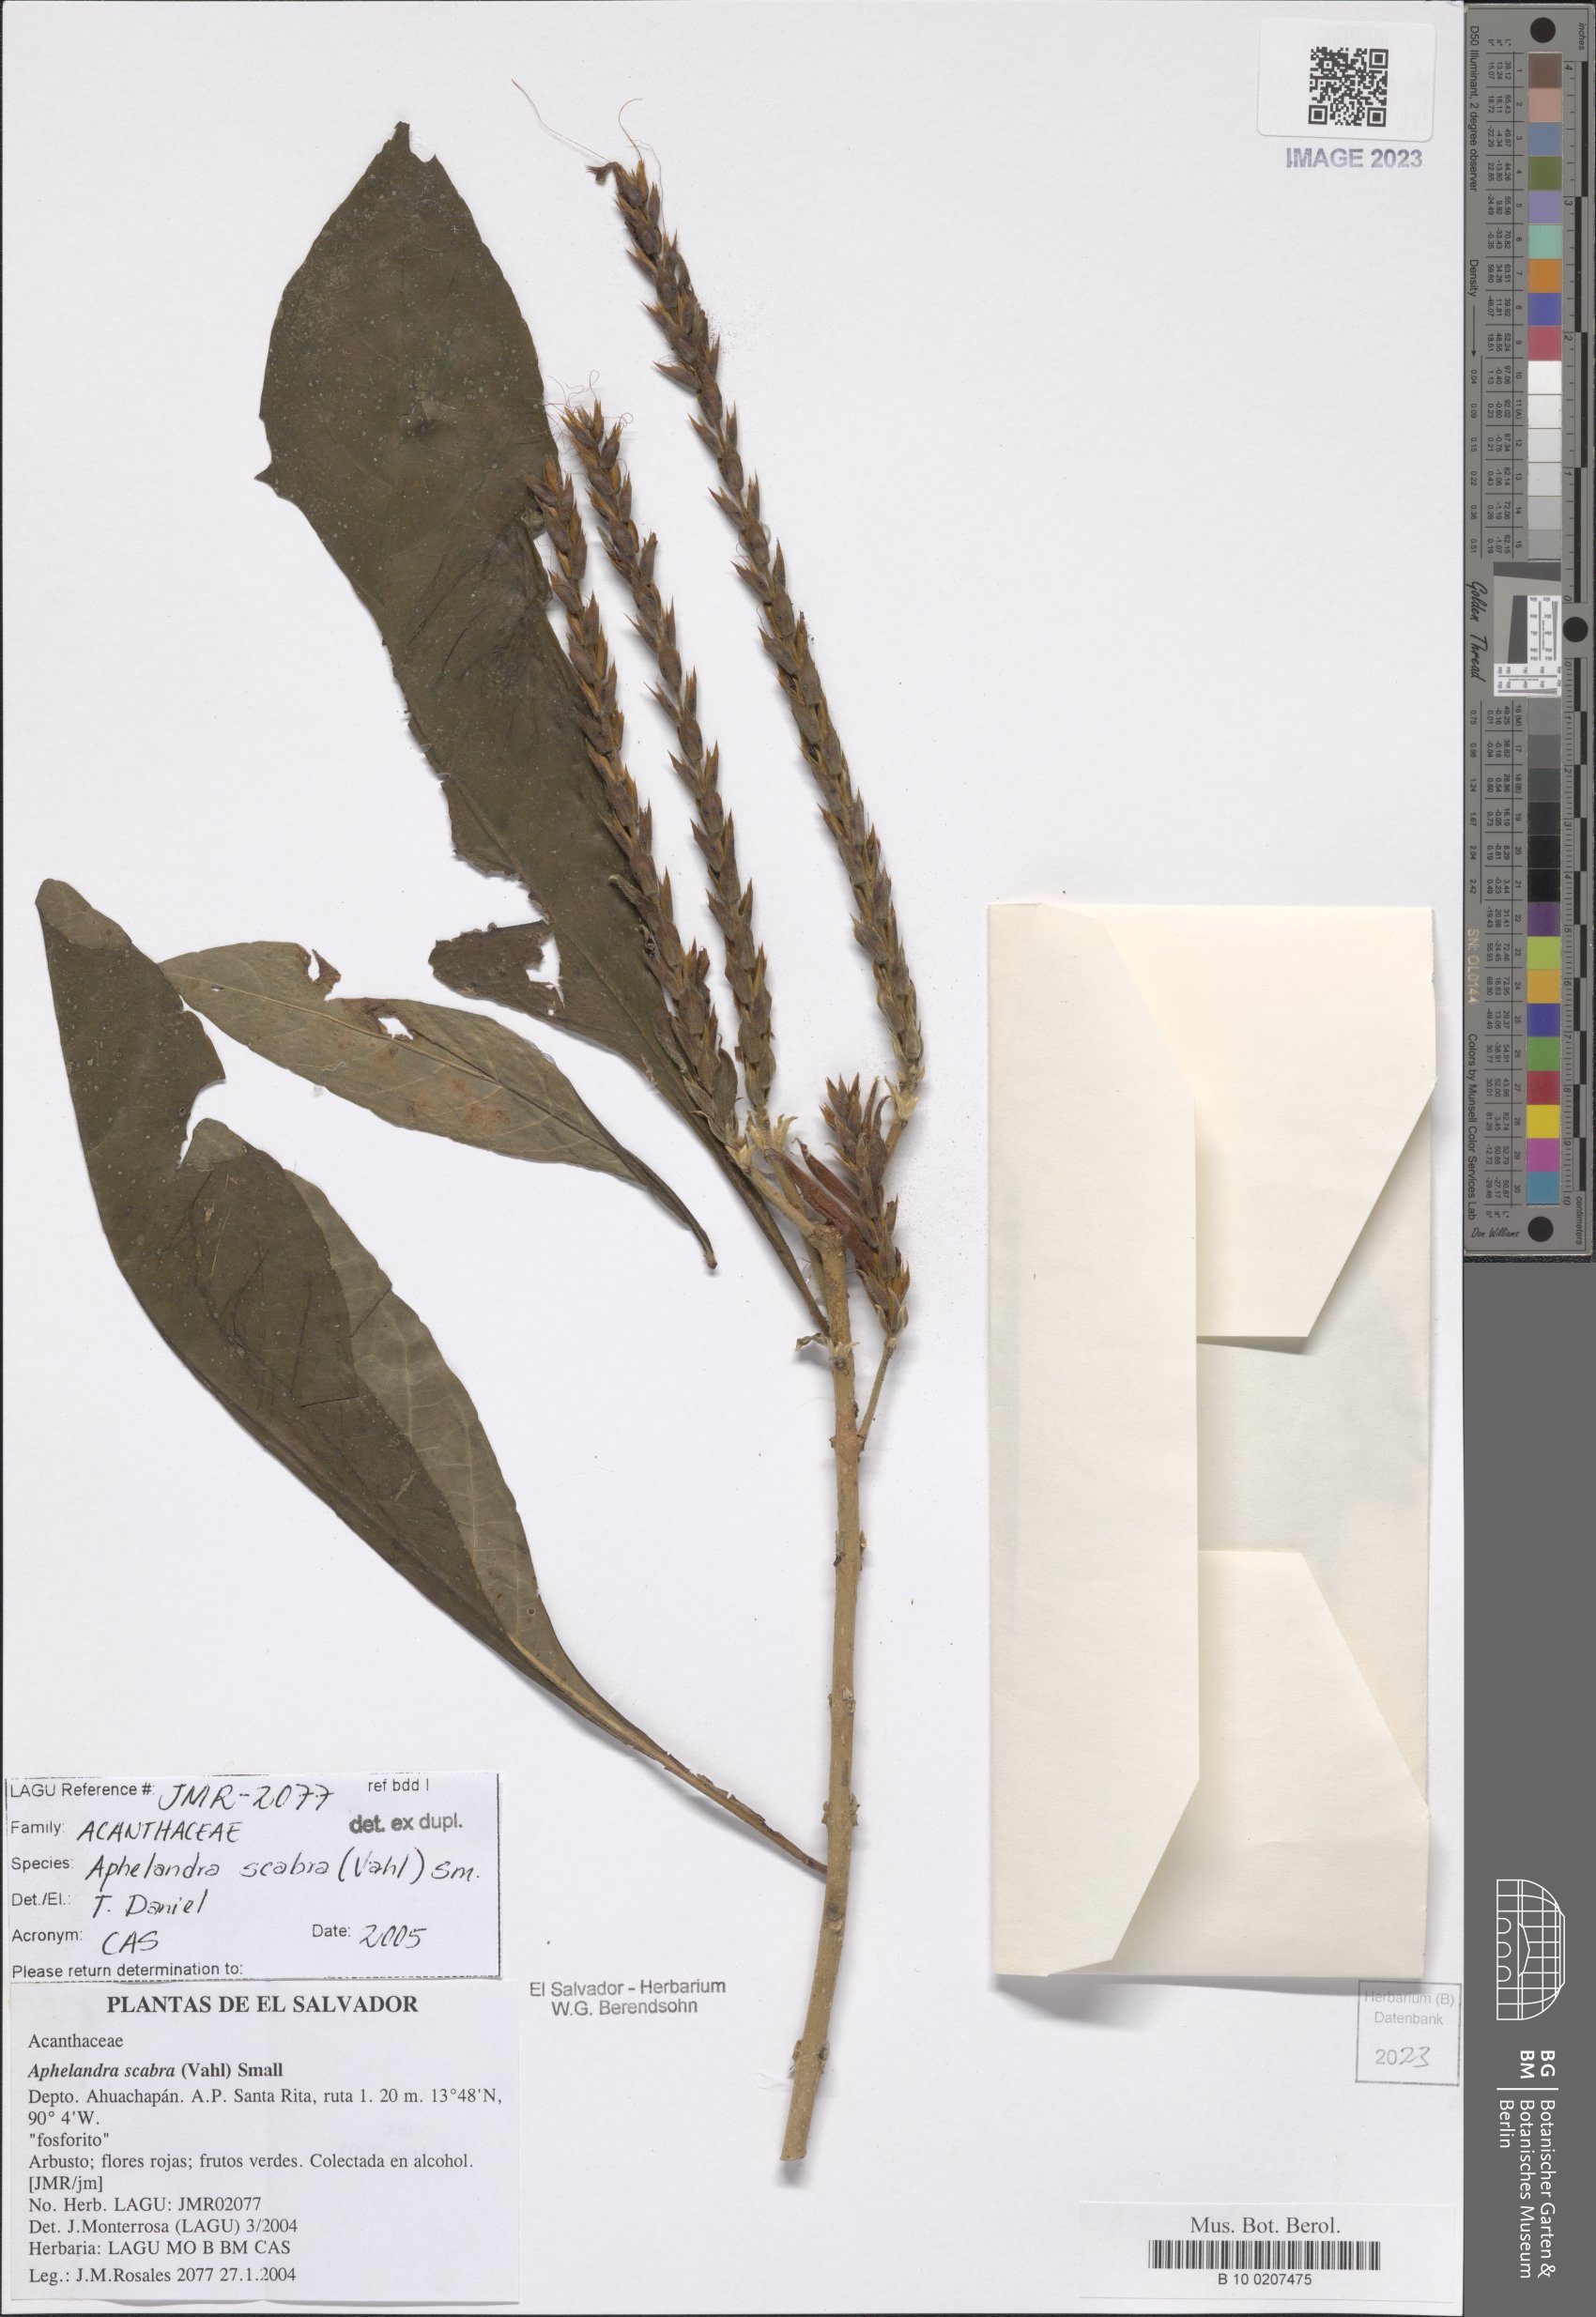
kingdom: Plantae
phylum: Tracheophyta
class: Magnoliopsida
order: Lamiales
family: Acanthaceae
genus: Aphelandra
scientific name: Aphelandra scabra
